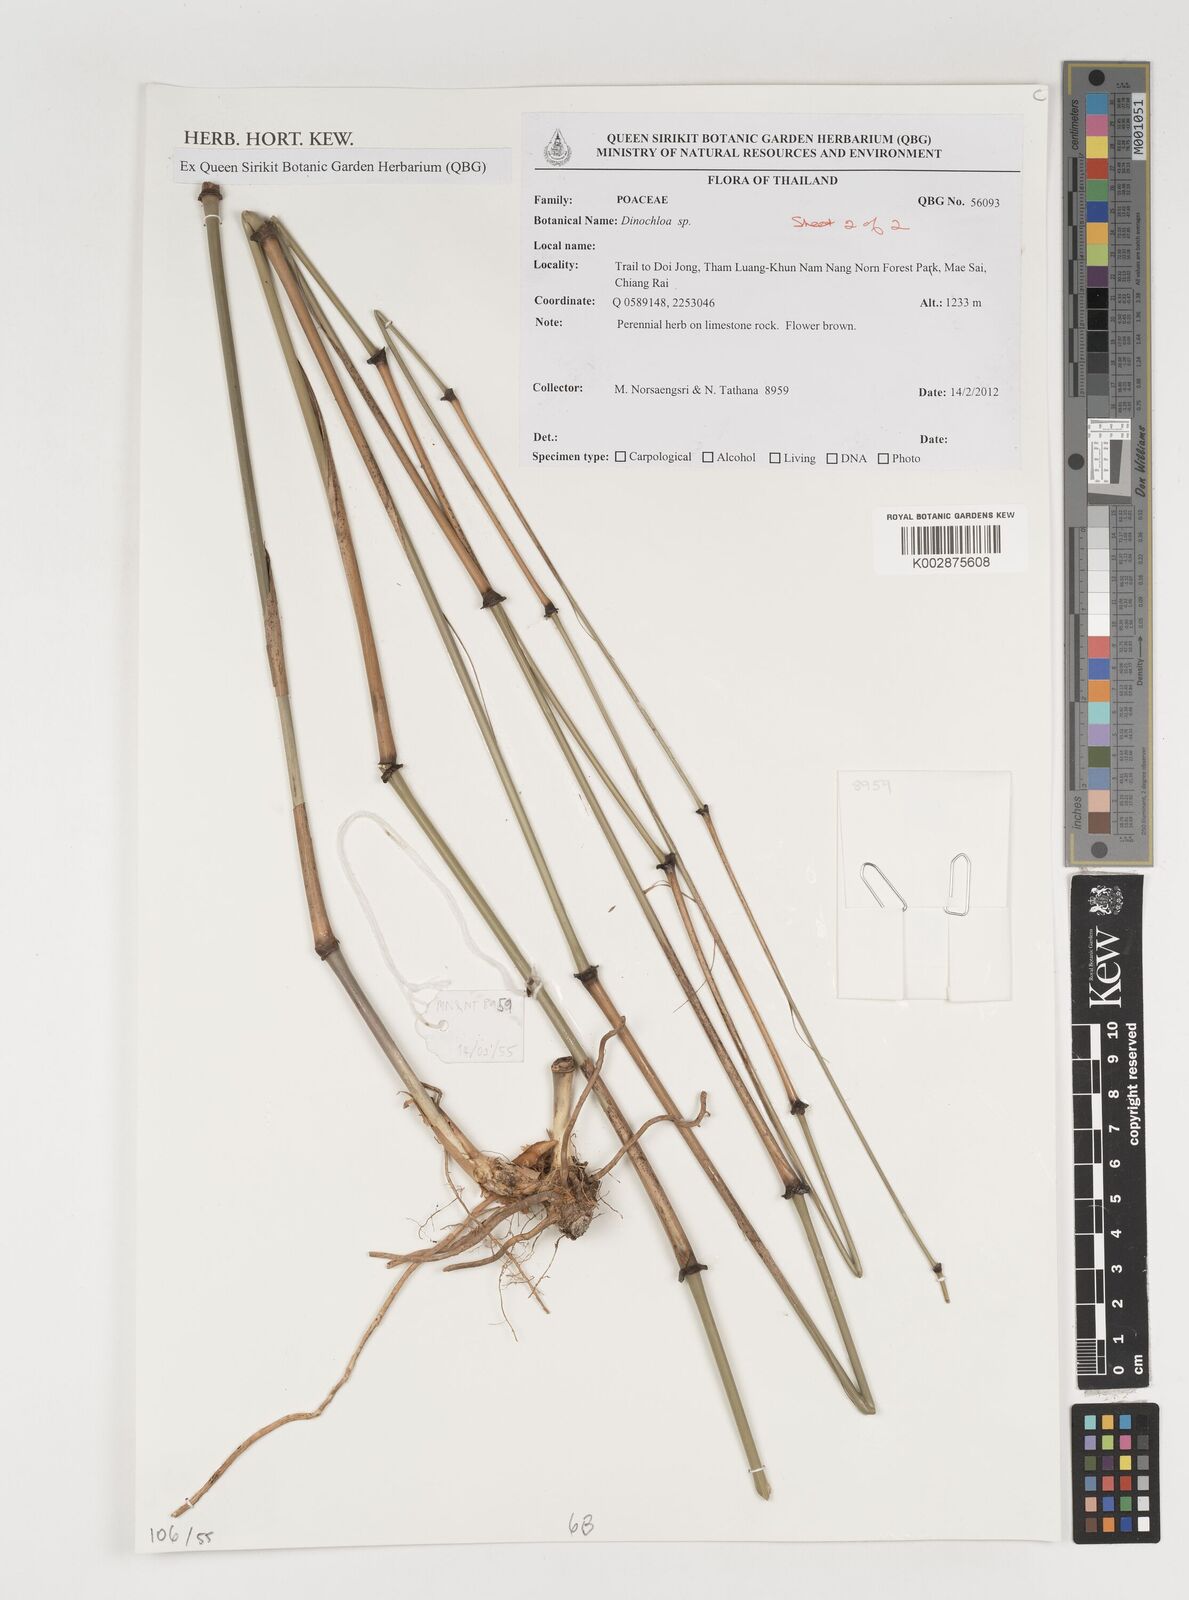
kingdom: Plantae
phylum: Tracheophyta
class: Liliopsida
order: Poales
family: Poaceae
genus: Dinochloa
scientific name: Dinochloa
